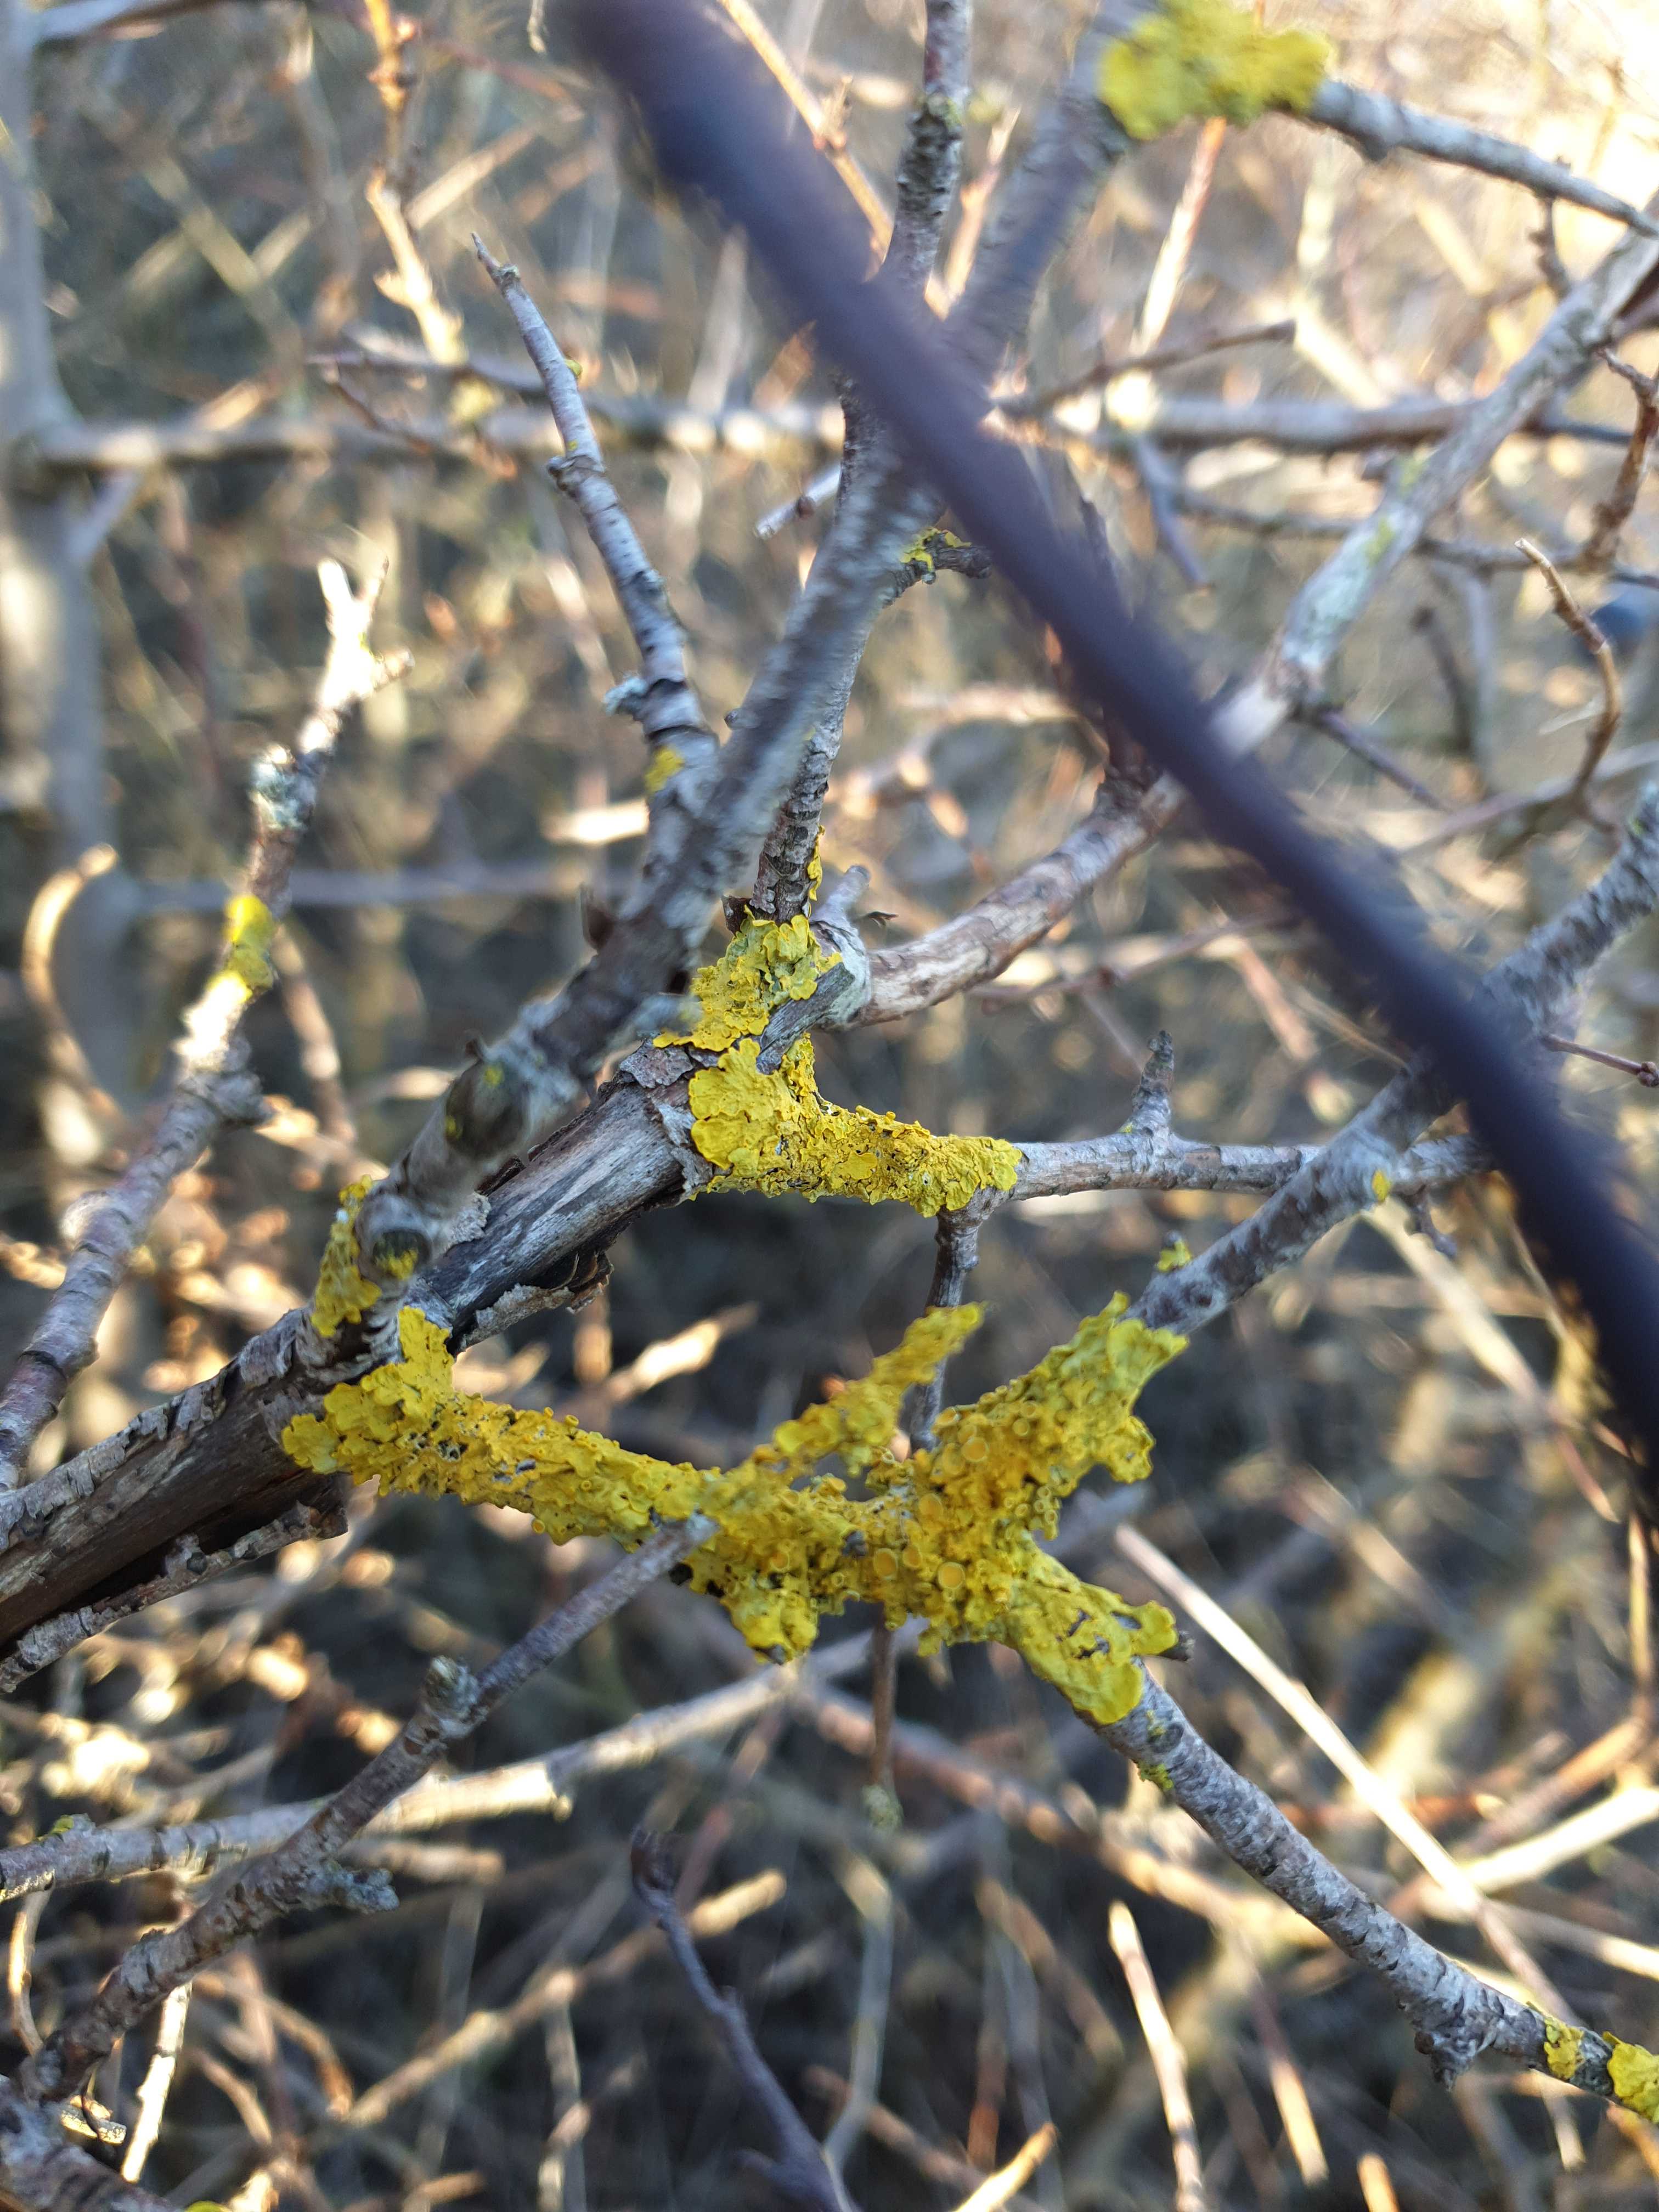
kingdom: Fungi
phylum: Ascomycota
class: Lecanoromycetes
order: Teloschistales
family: Teloschistaceae
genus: Xanthoria
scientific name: Xanthoria parietina
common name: almindelig væggelav
